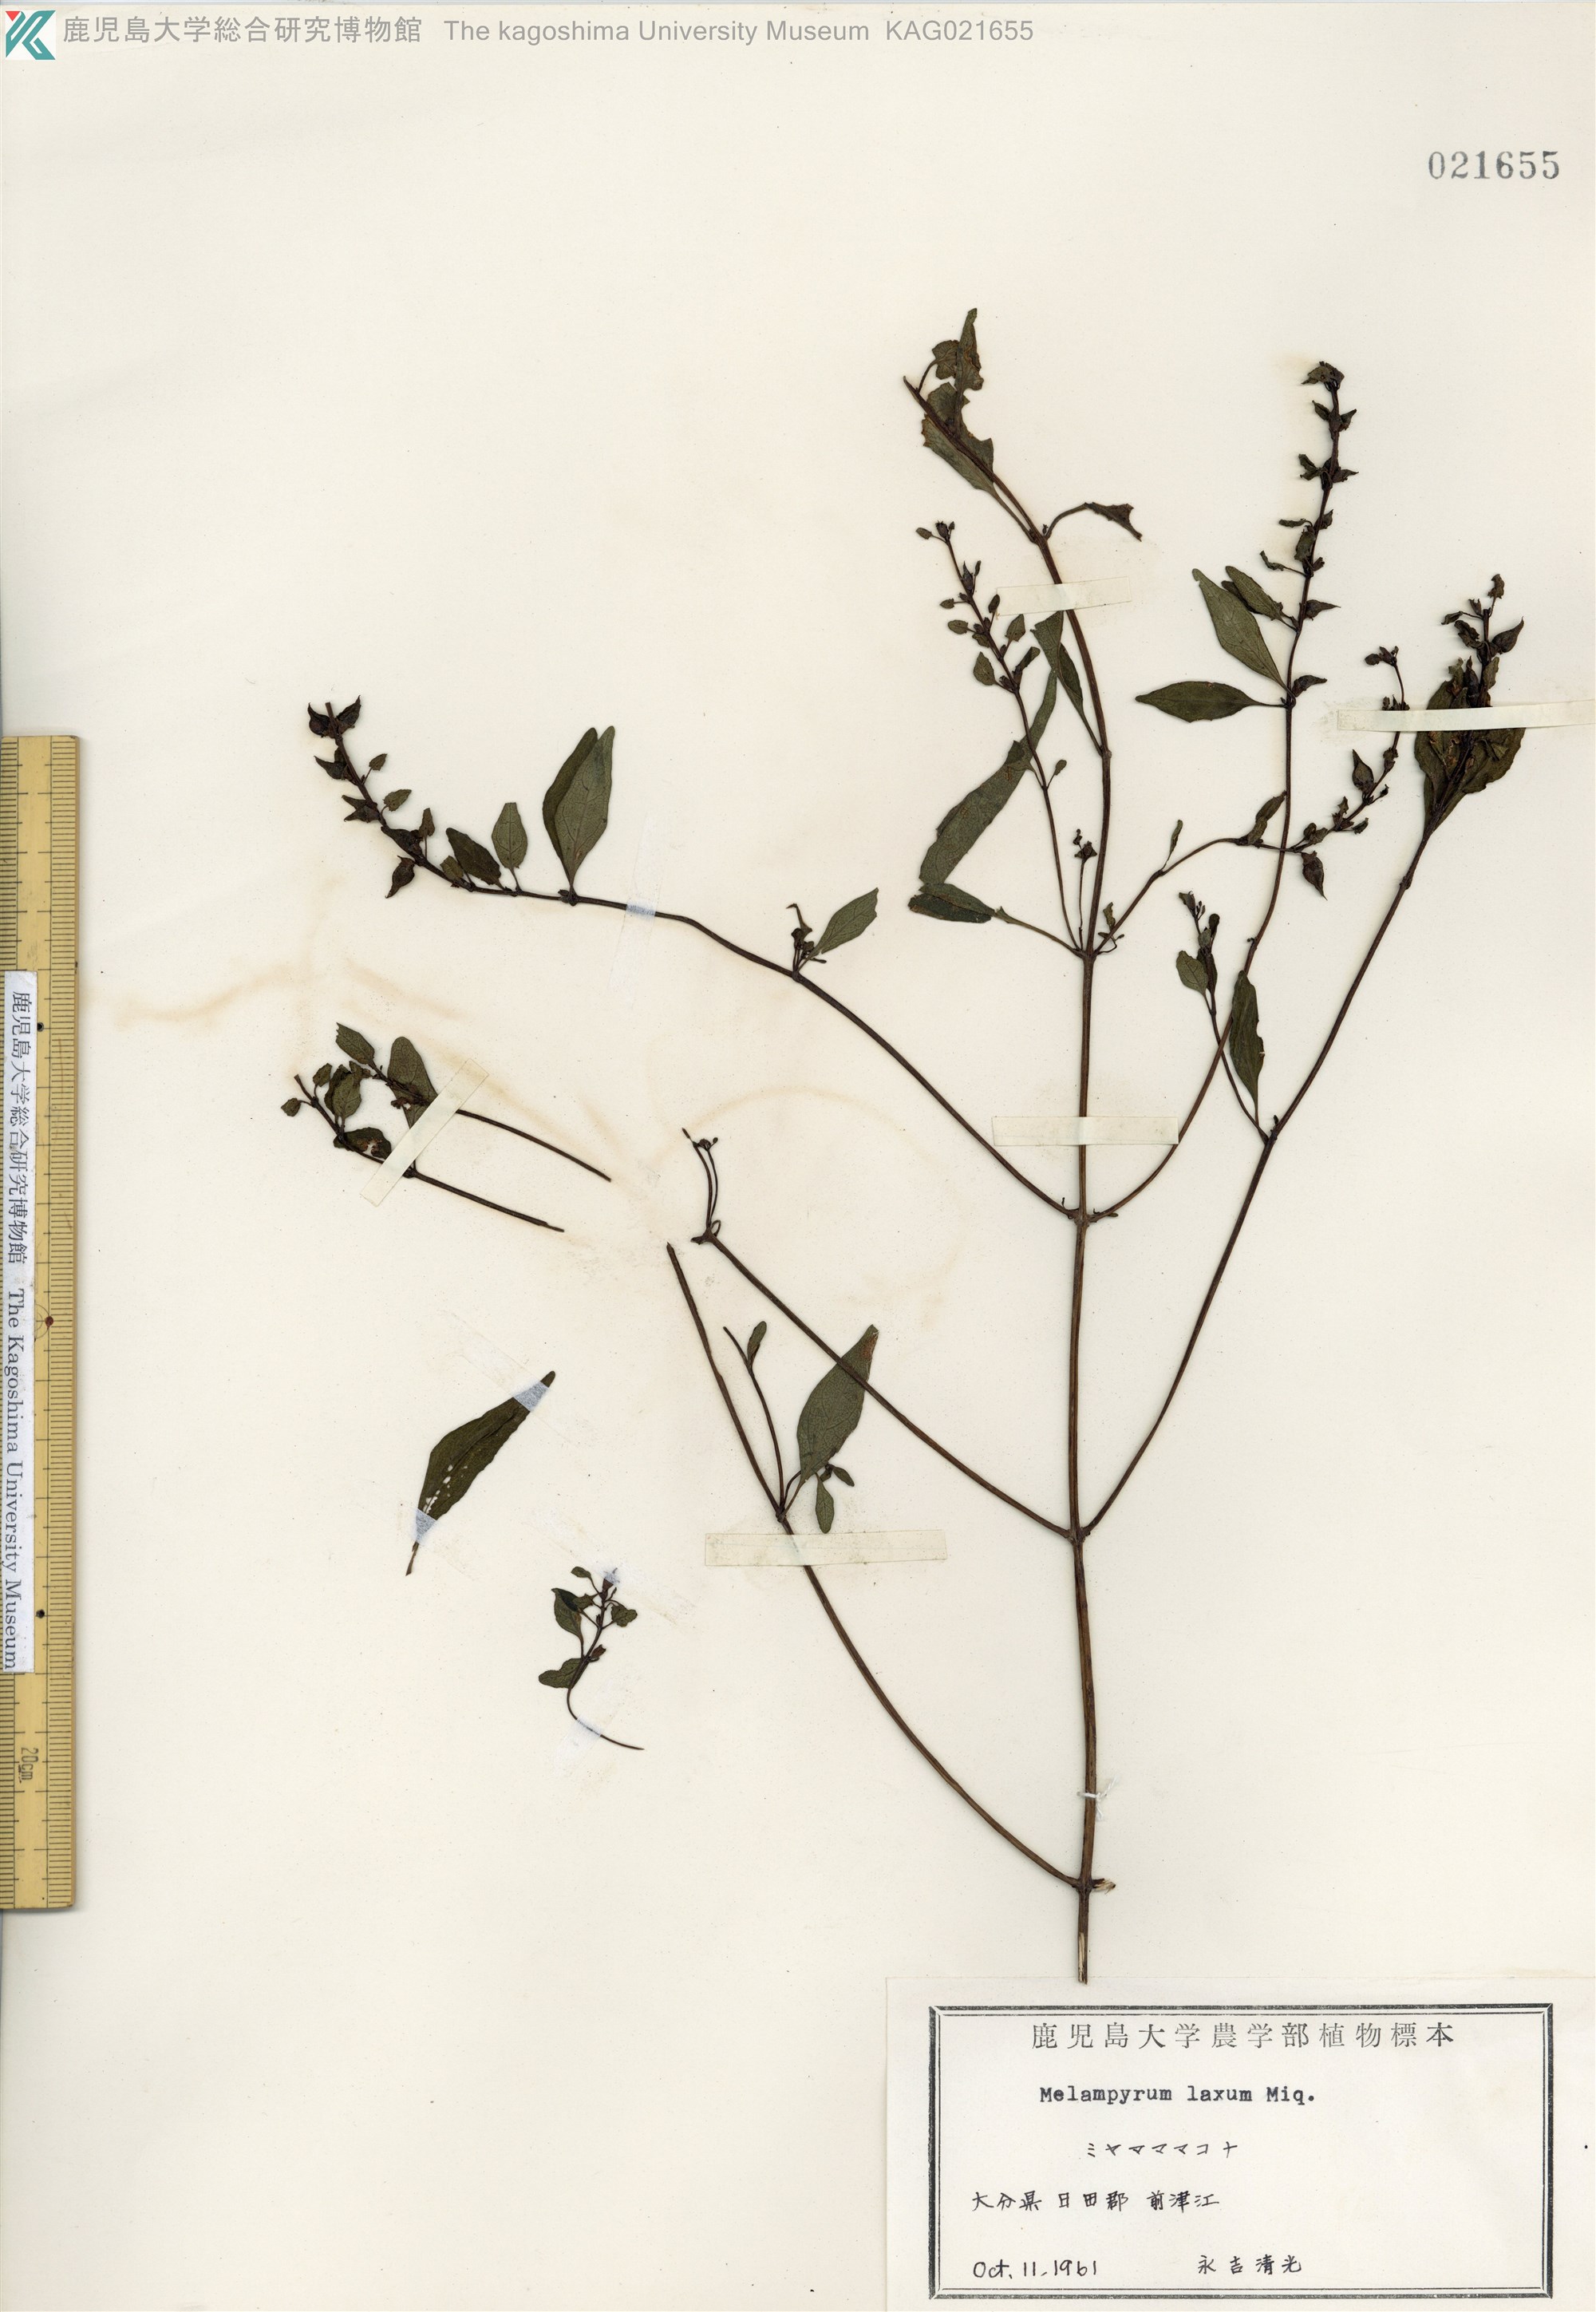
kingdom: Plantae
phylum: Tracheophyta
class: Magnoliopsida
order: Lamiales
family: Orobanchaceae
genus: Melampyrum
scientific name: Melampyrum laxum
